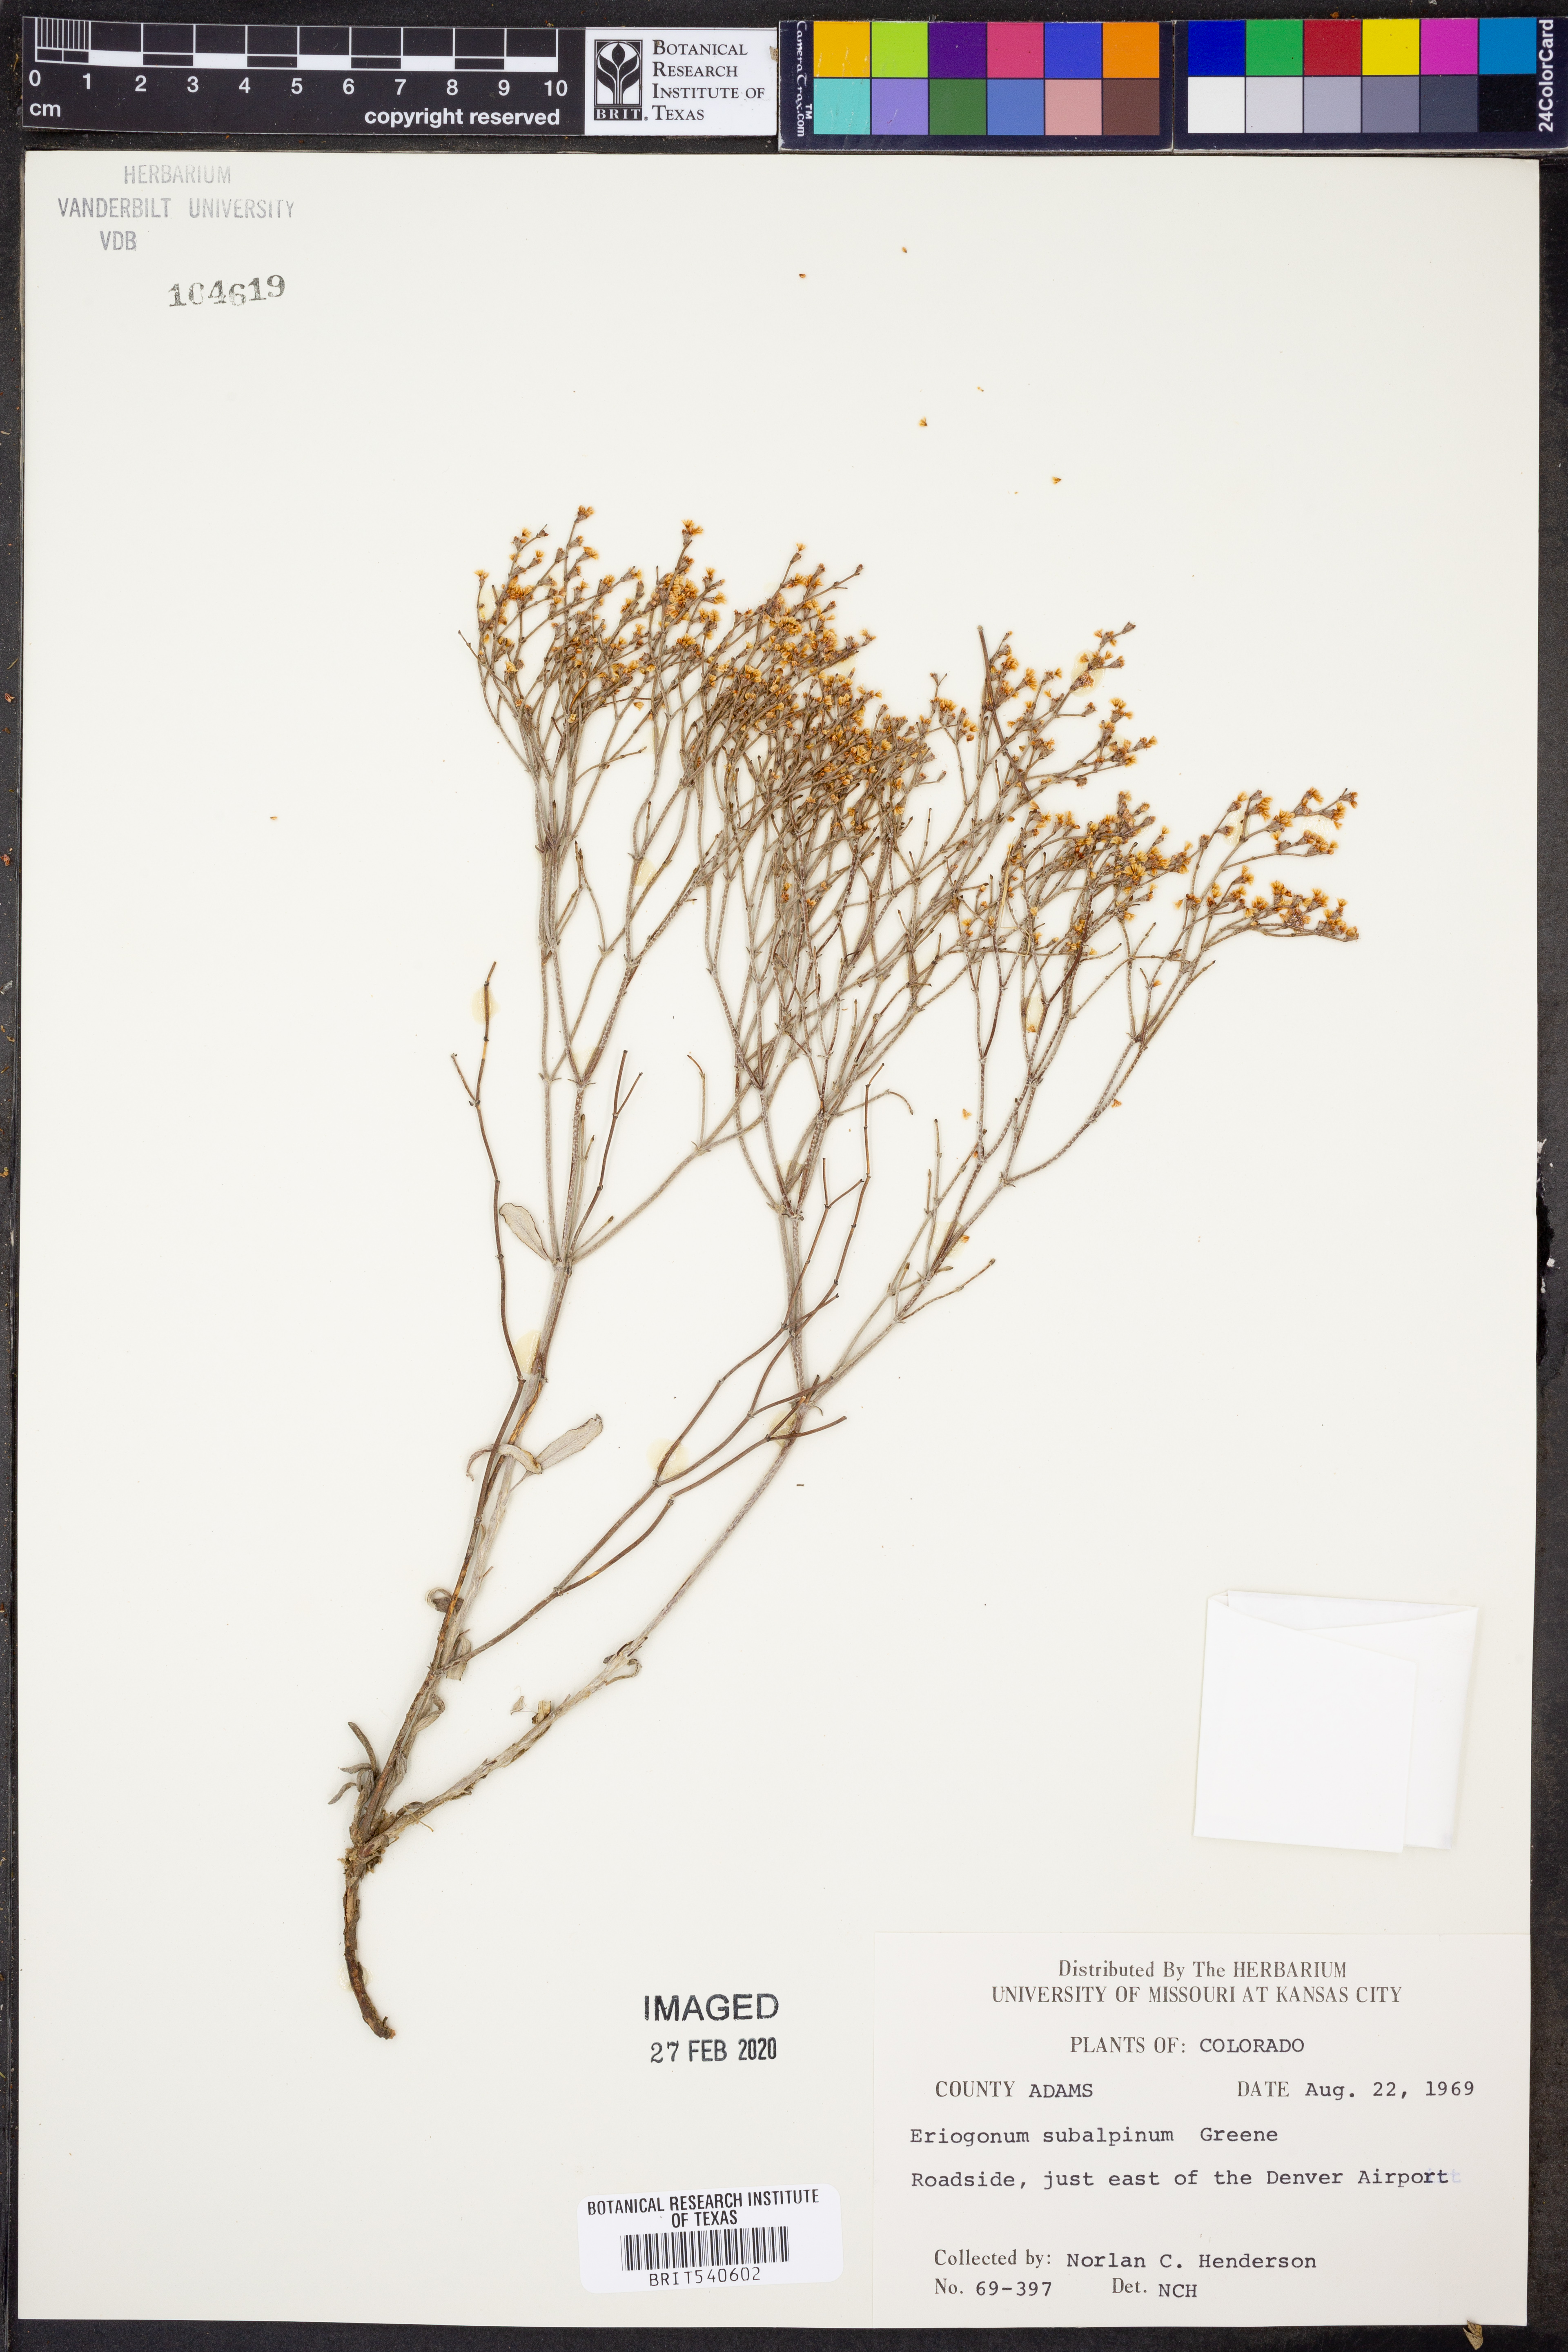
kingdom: Plantae
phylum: Tracheophyta
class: Magnoliopsida
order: Caryophyllales
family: Polygonaceae
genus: Eriogonum
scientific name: Eriogonum umbellatum
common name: Sulfur-buckwheat
